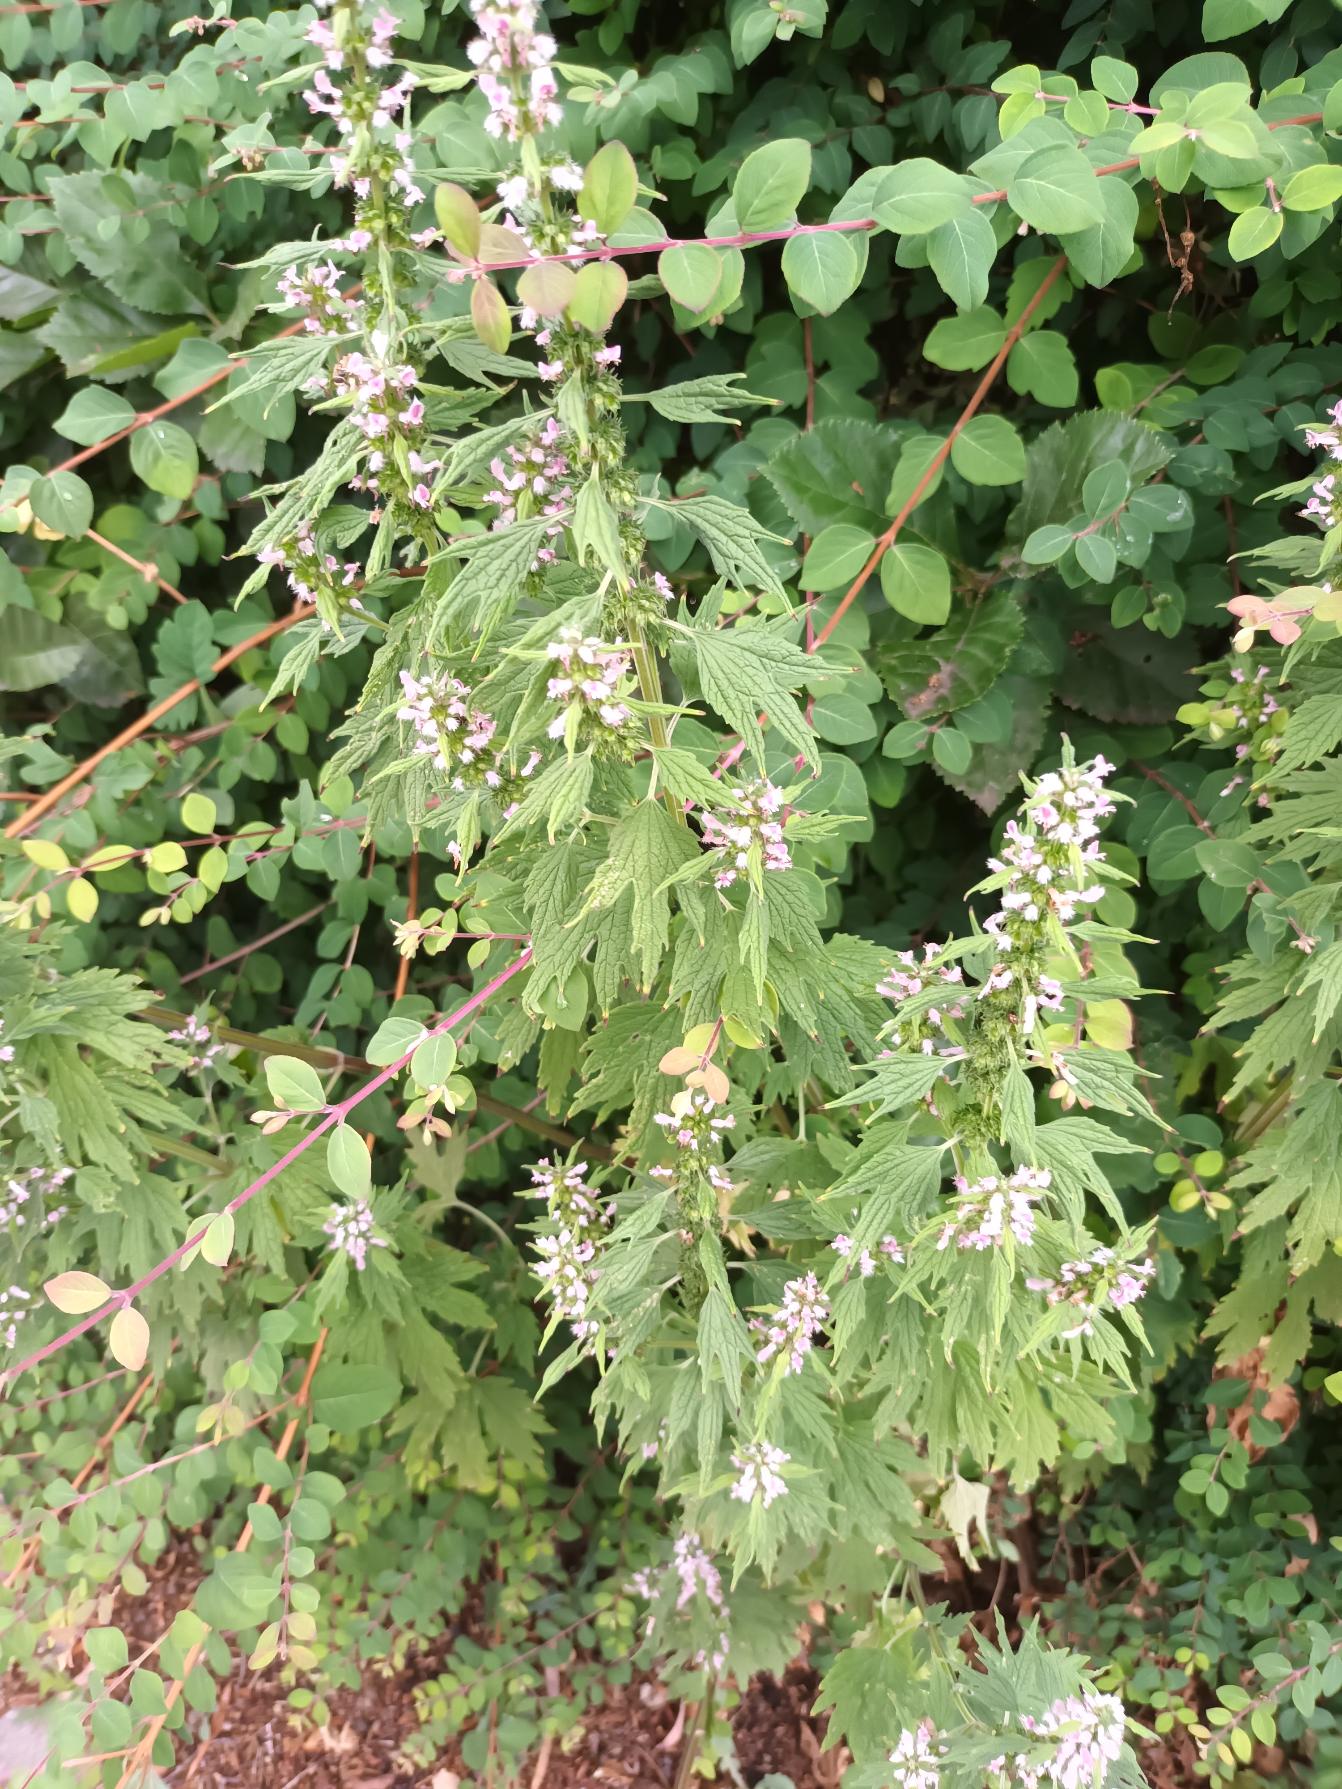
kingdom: Plantae
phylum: Tracheophyta
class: Magnoliopsida
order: Lamiales
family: Lamiaceae
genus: Leonurus
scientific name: Leonurus cardiaca
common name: Hjertespand
